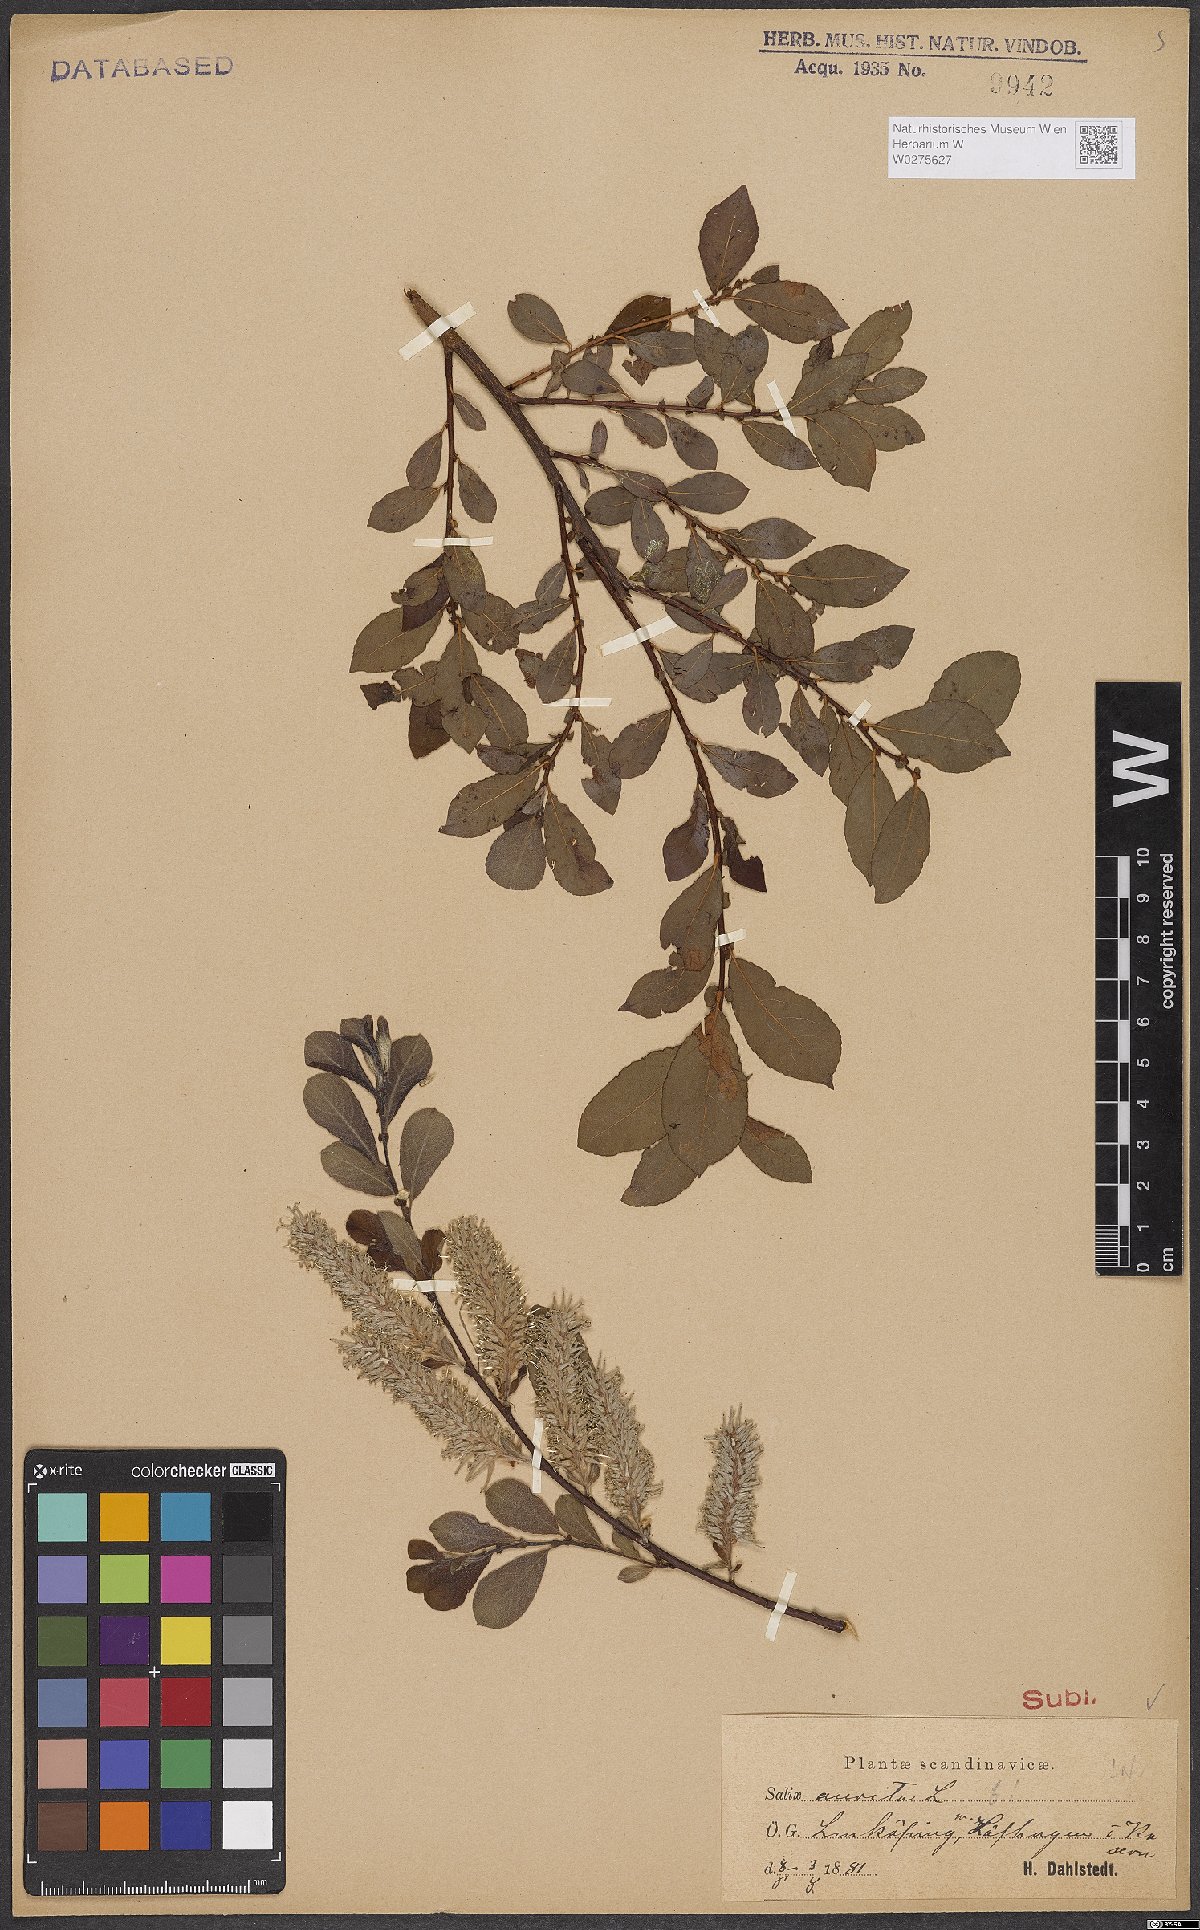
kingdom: Plantae
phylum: Tracheophyta
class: Magnoliopsida
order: Malpighiales
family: Salicaceae
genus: Salix
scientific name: Salix aurita
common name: Eared willow
